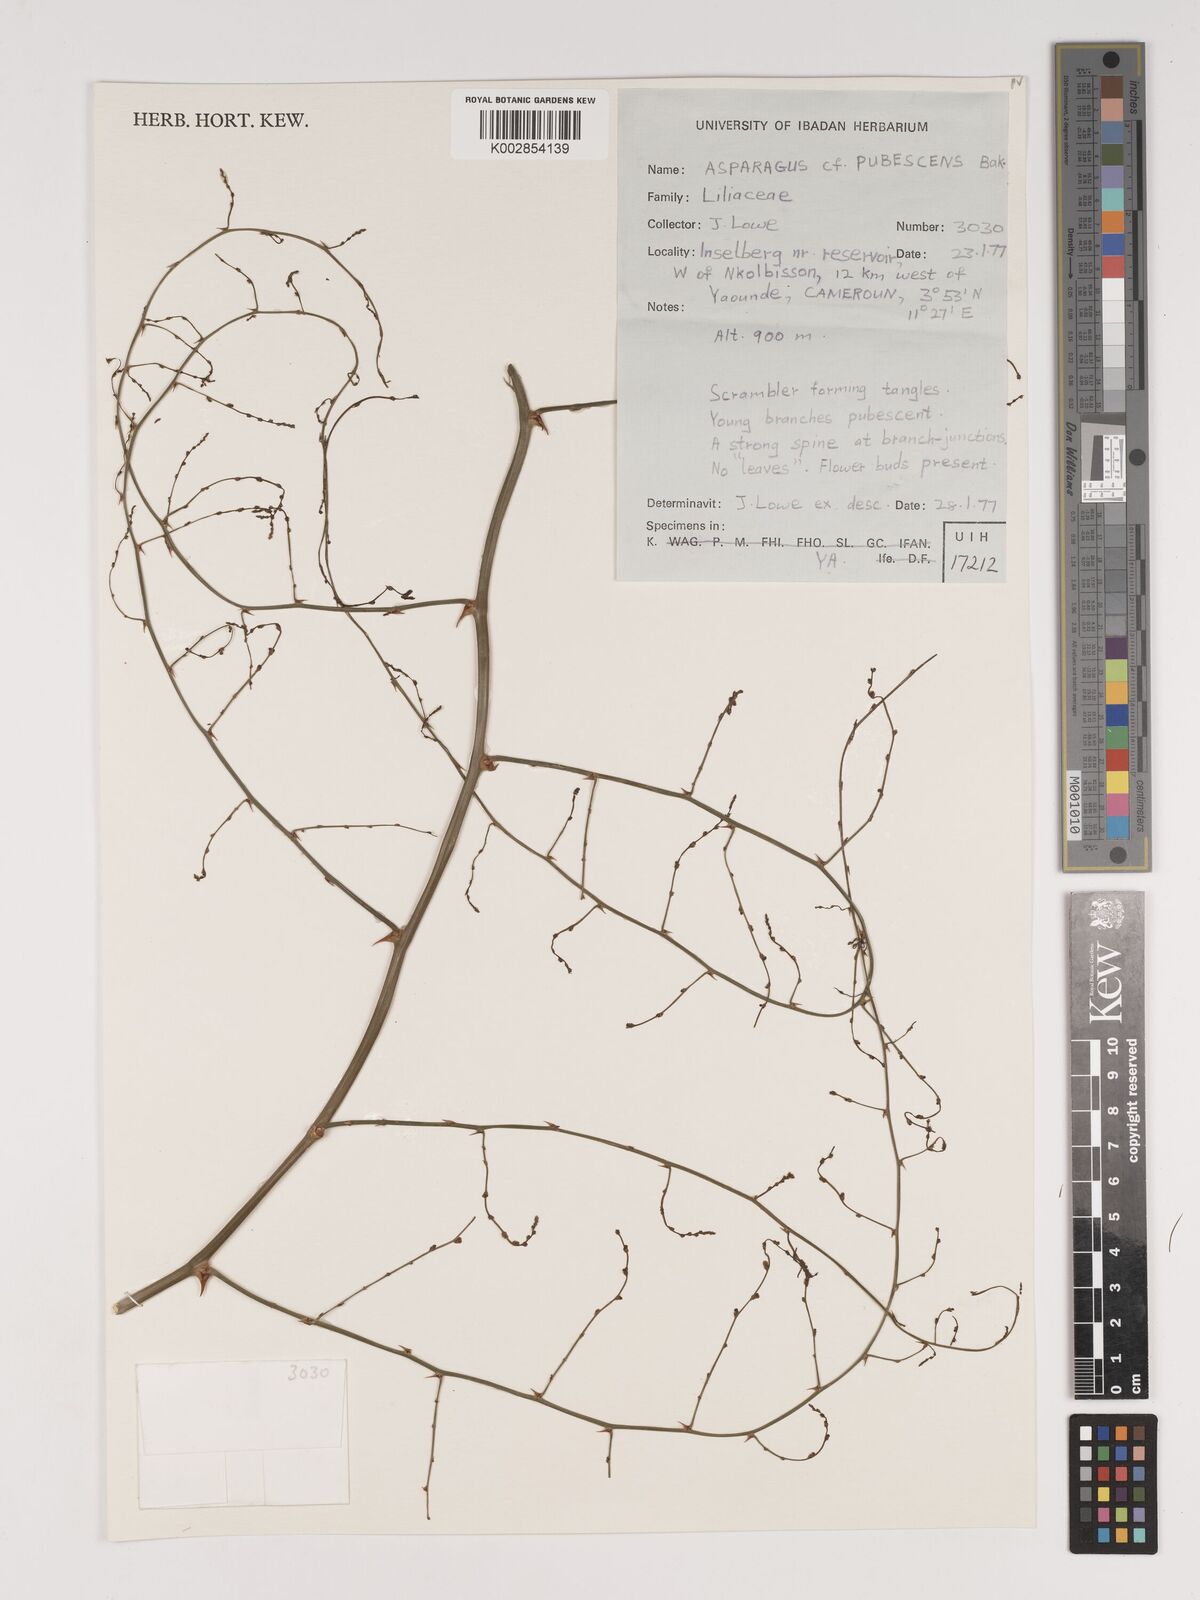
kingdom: Plantae
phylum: Tracheophyta
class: Liliopsida
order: Asparagales
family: Asparagaceae
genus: Asparagus
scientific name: Asparagus africanus
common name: Asparagus-fern
